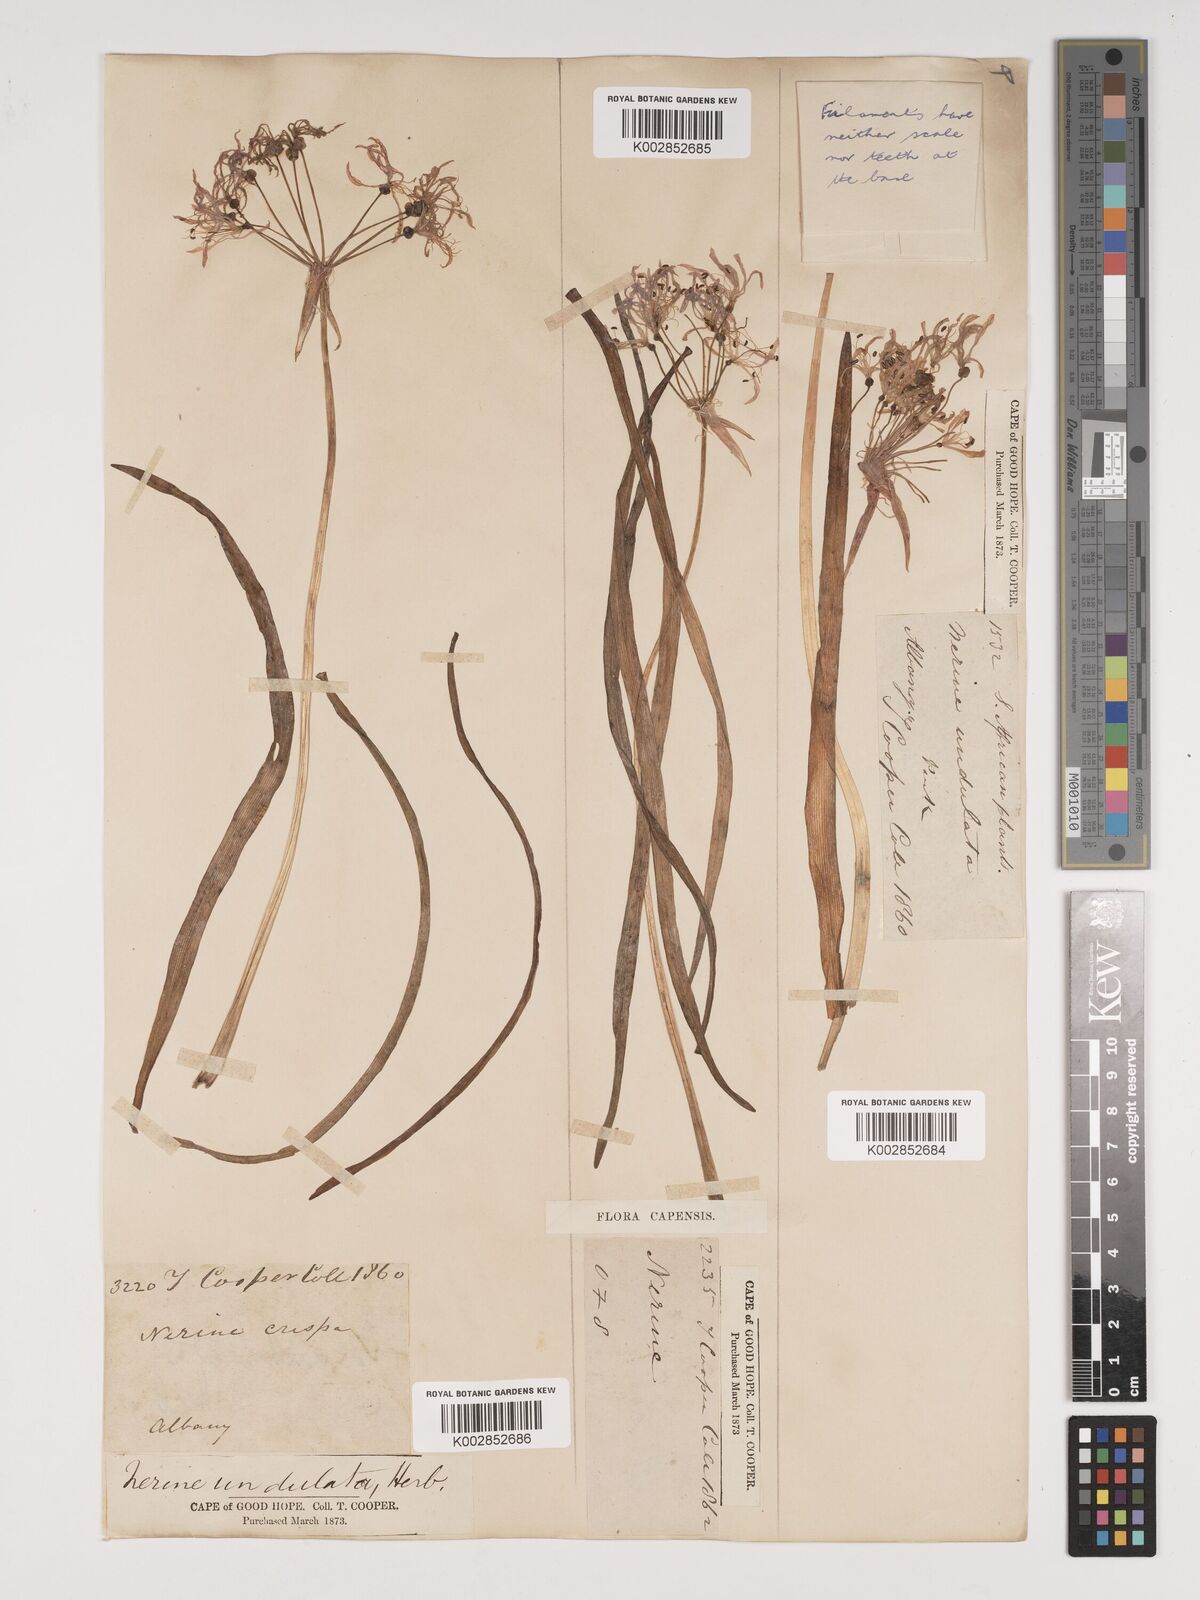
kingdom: Plantae
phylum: Tracheophyta
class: Liliopsida
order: Asparagales
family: Amaryllidaceae
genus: Nerine
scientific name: Nerine undulata
